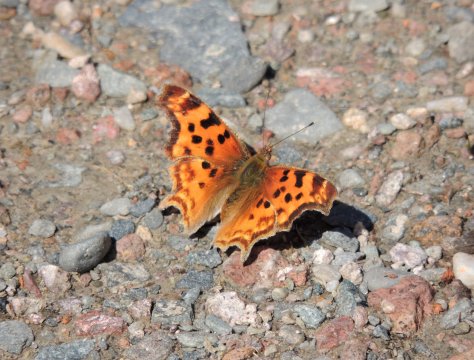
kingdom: Animalia
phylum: Arthropoda
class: Insecta
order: Lepidoptera
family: Nymphalidae
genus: Polygonia
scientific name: Polygonia satyrus
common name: Satyr Comma
